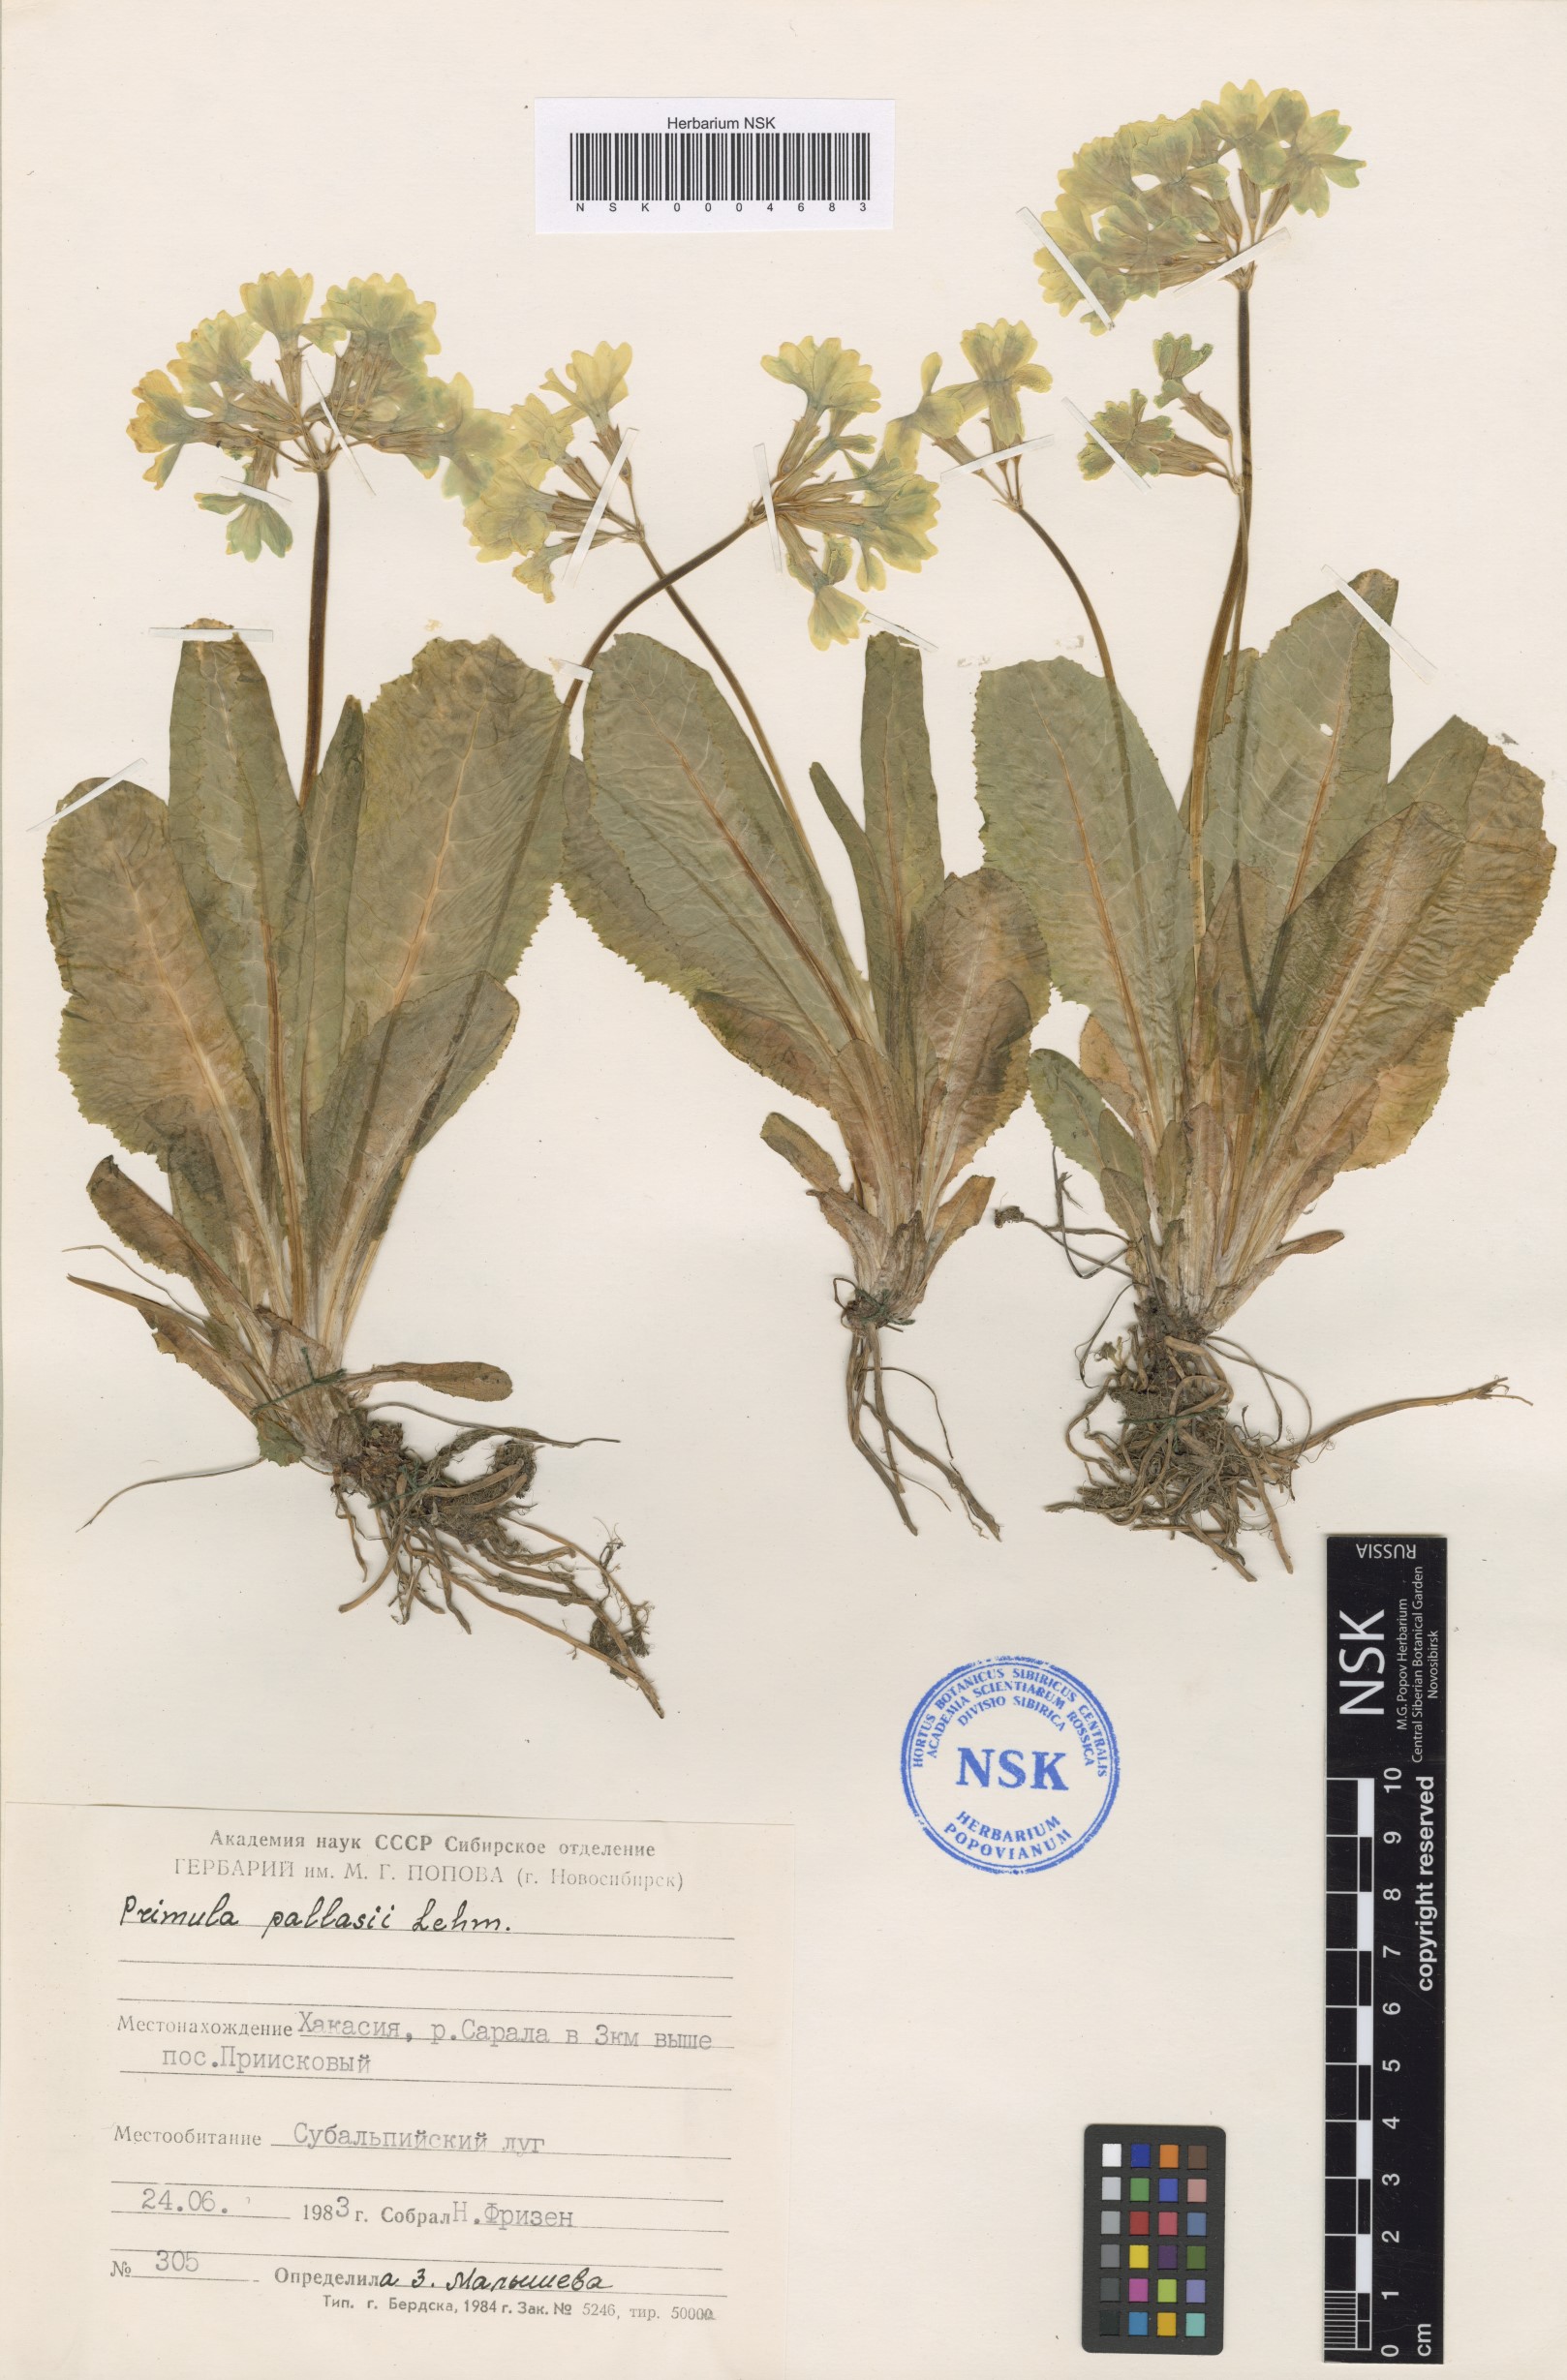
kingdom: Plantae
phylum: Tracheophyta
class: Magnoliopsida
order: Ericales
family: Primulaceae
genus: Primula
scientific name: Primula elatior
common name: Oxlip
